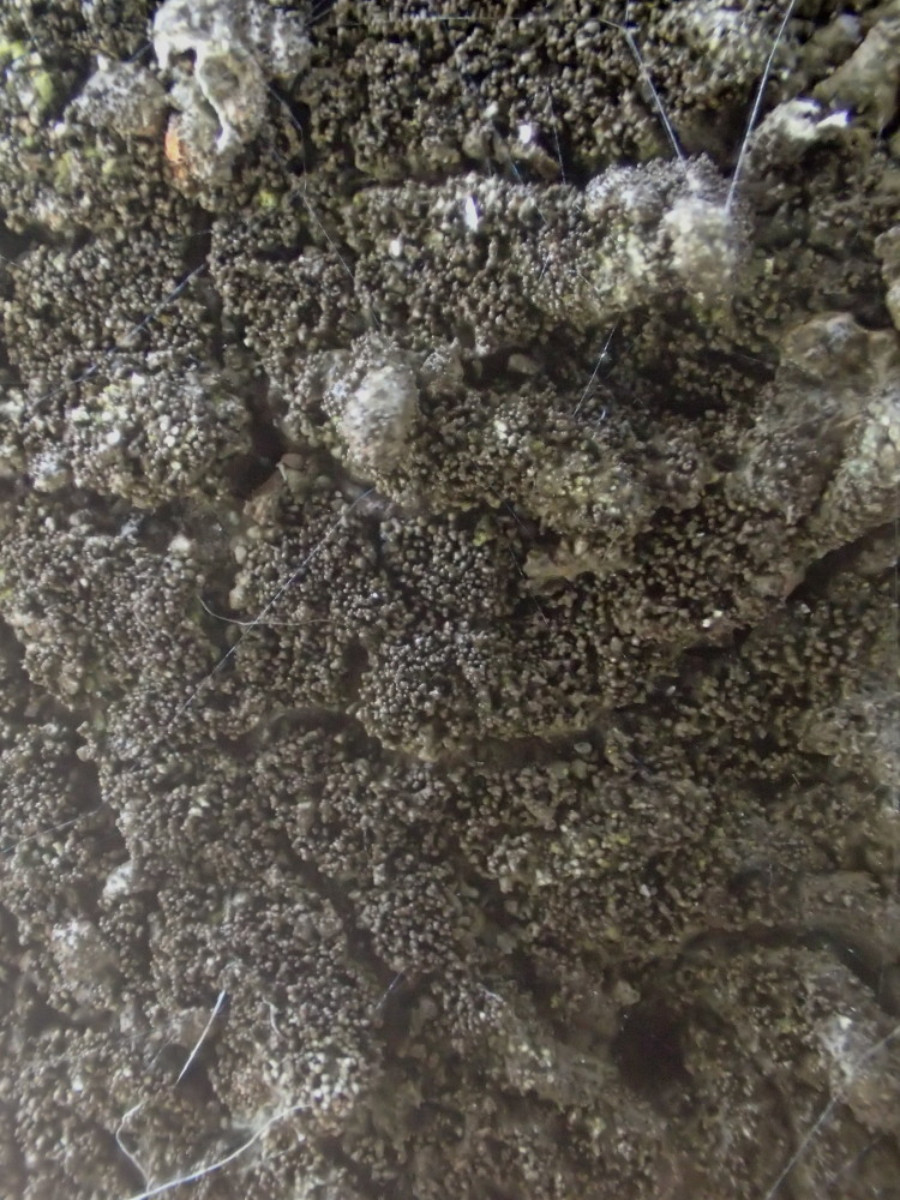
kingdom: Fungi
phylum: Ascomycota
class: Lecanoromycetes
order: Lecanorales
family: Parmeliaceae
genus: Melanohalea
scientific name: Melanohalea exasperatula
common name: kølle-skållav
